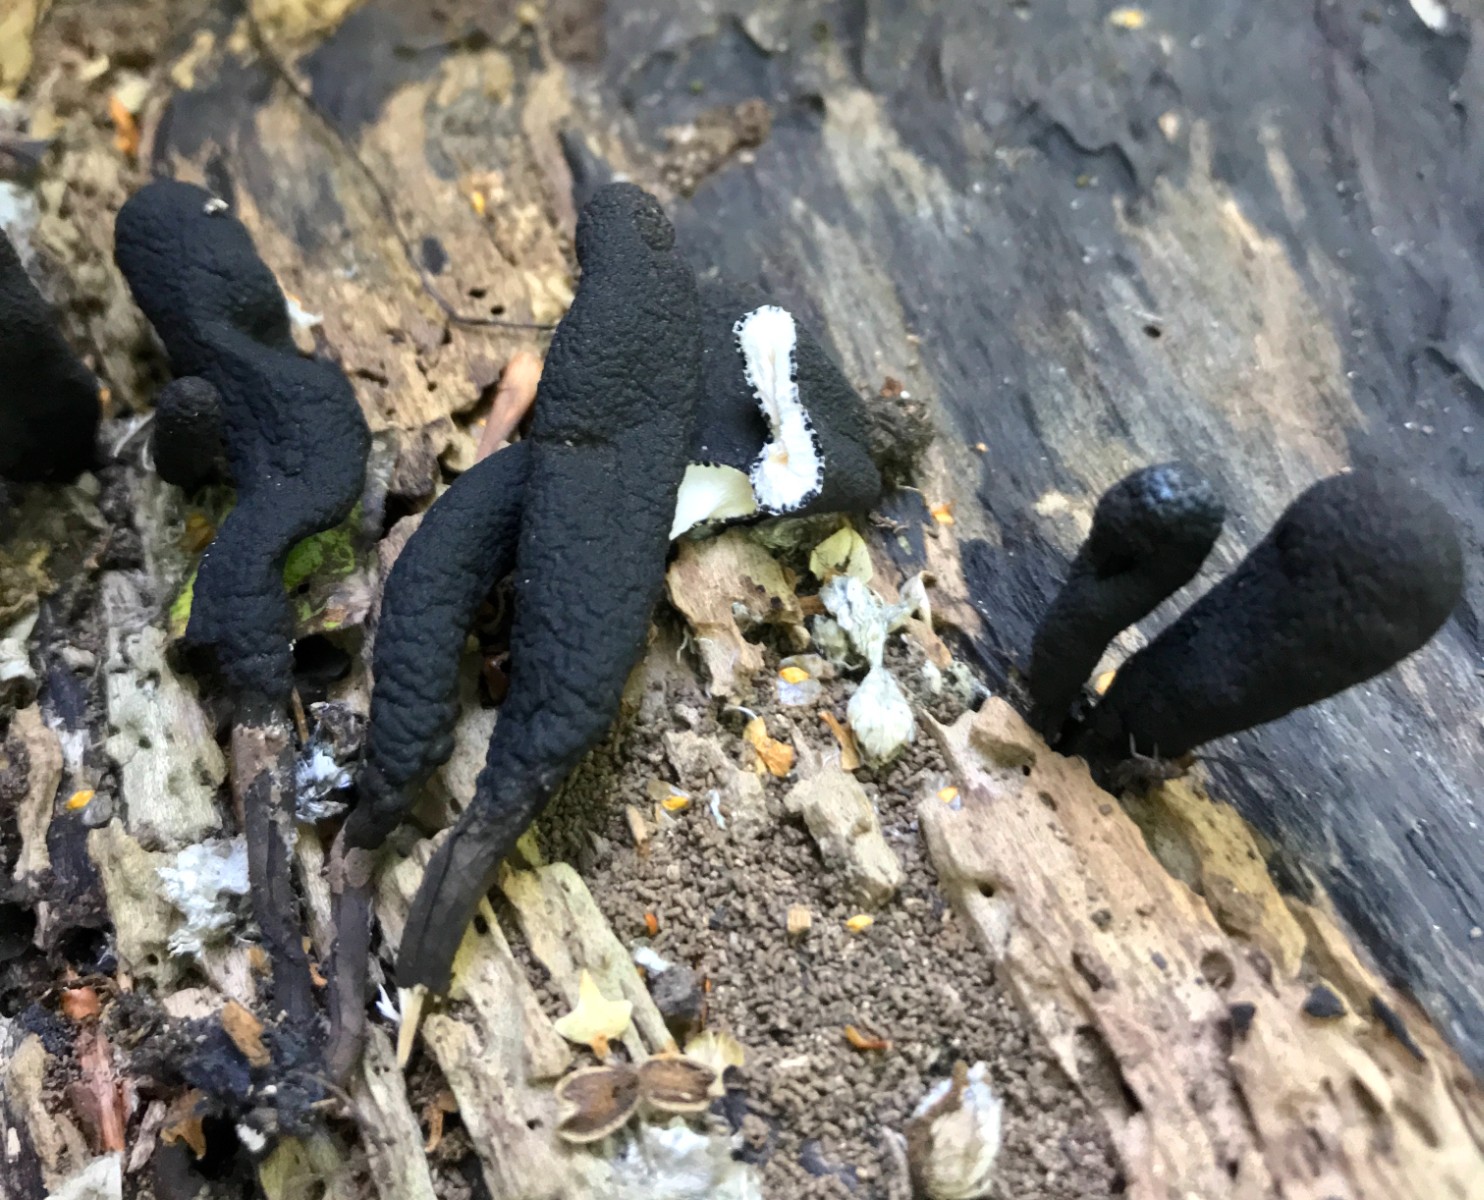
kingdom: Fungi
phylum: Ascomycota
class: Sordariomycetes
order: Xylariales
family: Xylariaceae
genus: Xylaria
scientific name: Xylaria longipes
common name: slank stødsvamp
